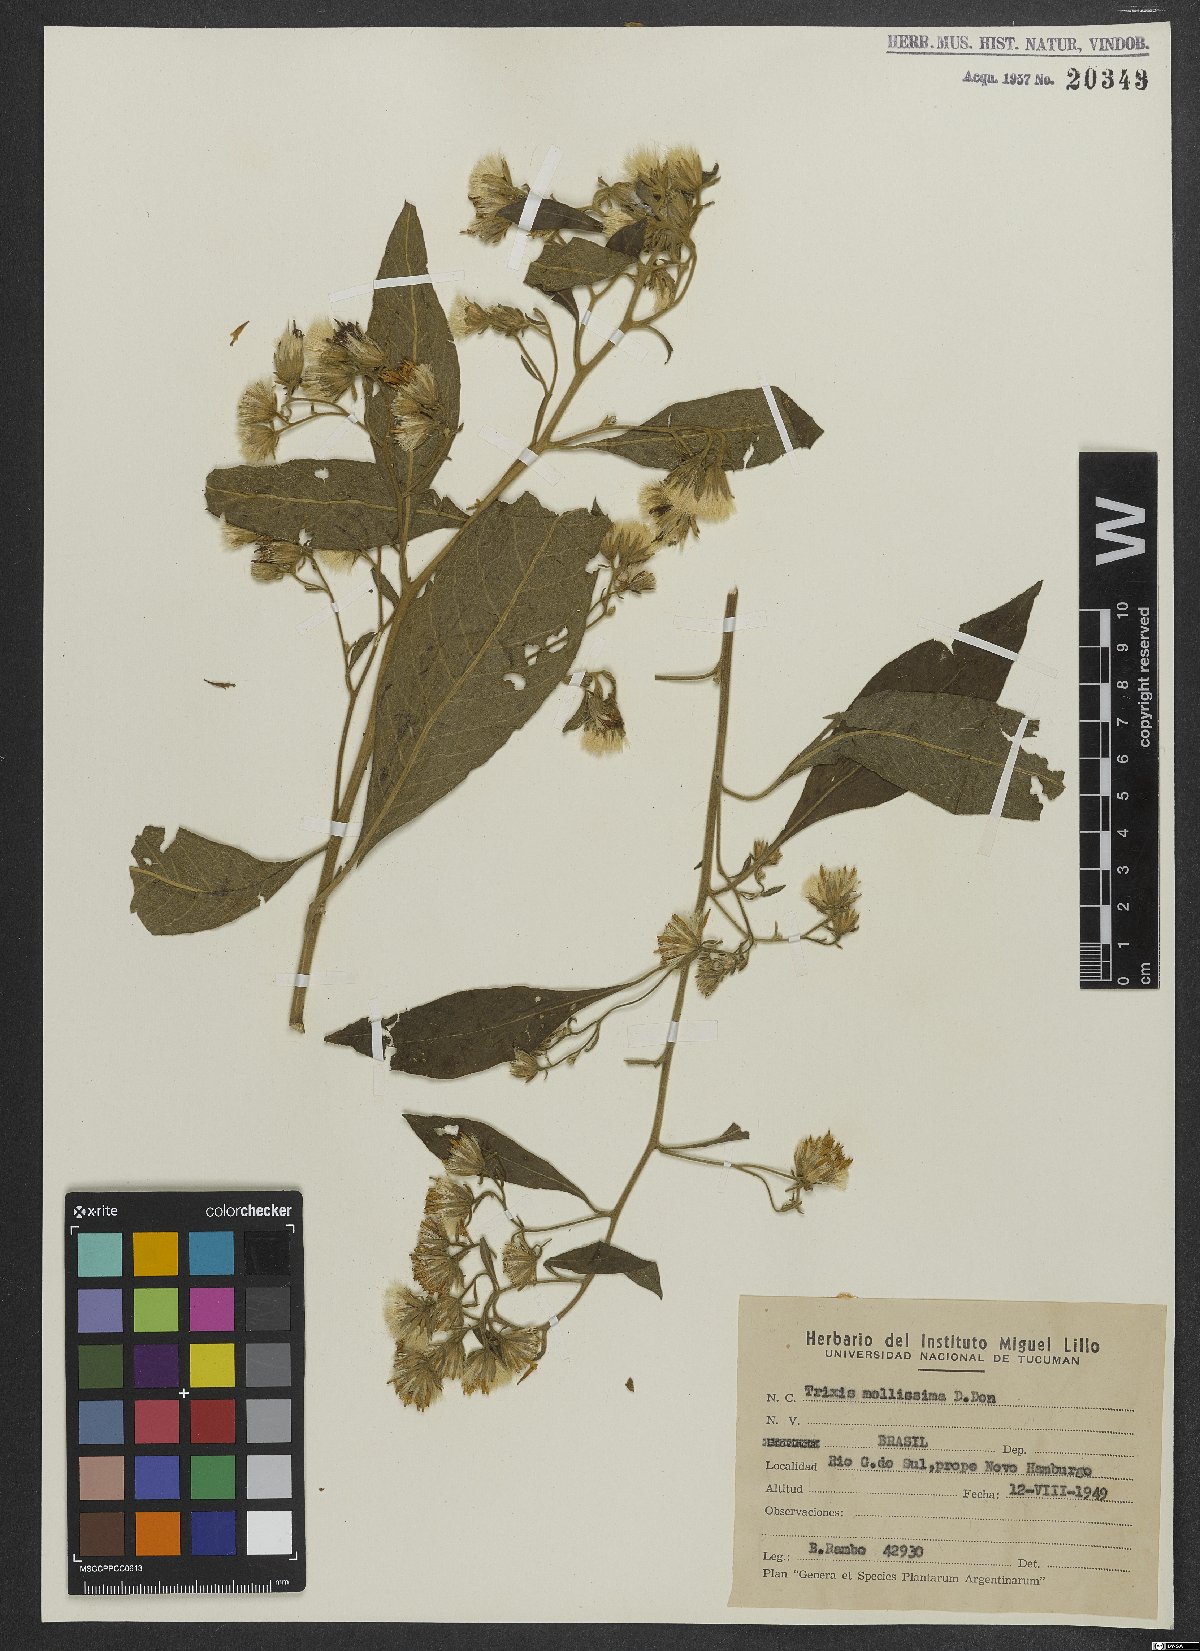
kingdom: Plantae
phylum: Tracheophyta
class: Magnoliopsida
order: Asterales
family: Asteraceae
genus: Trixis
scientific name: Trixis praestans
